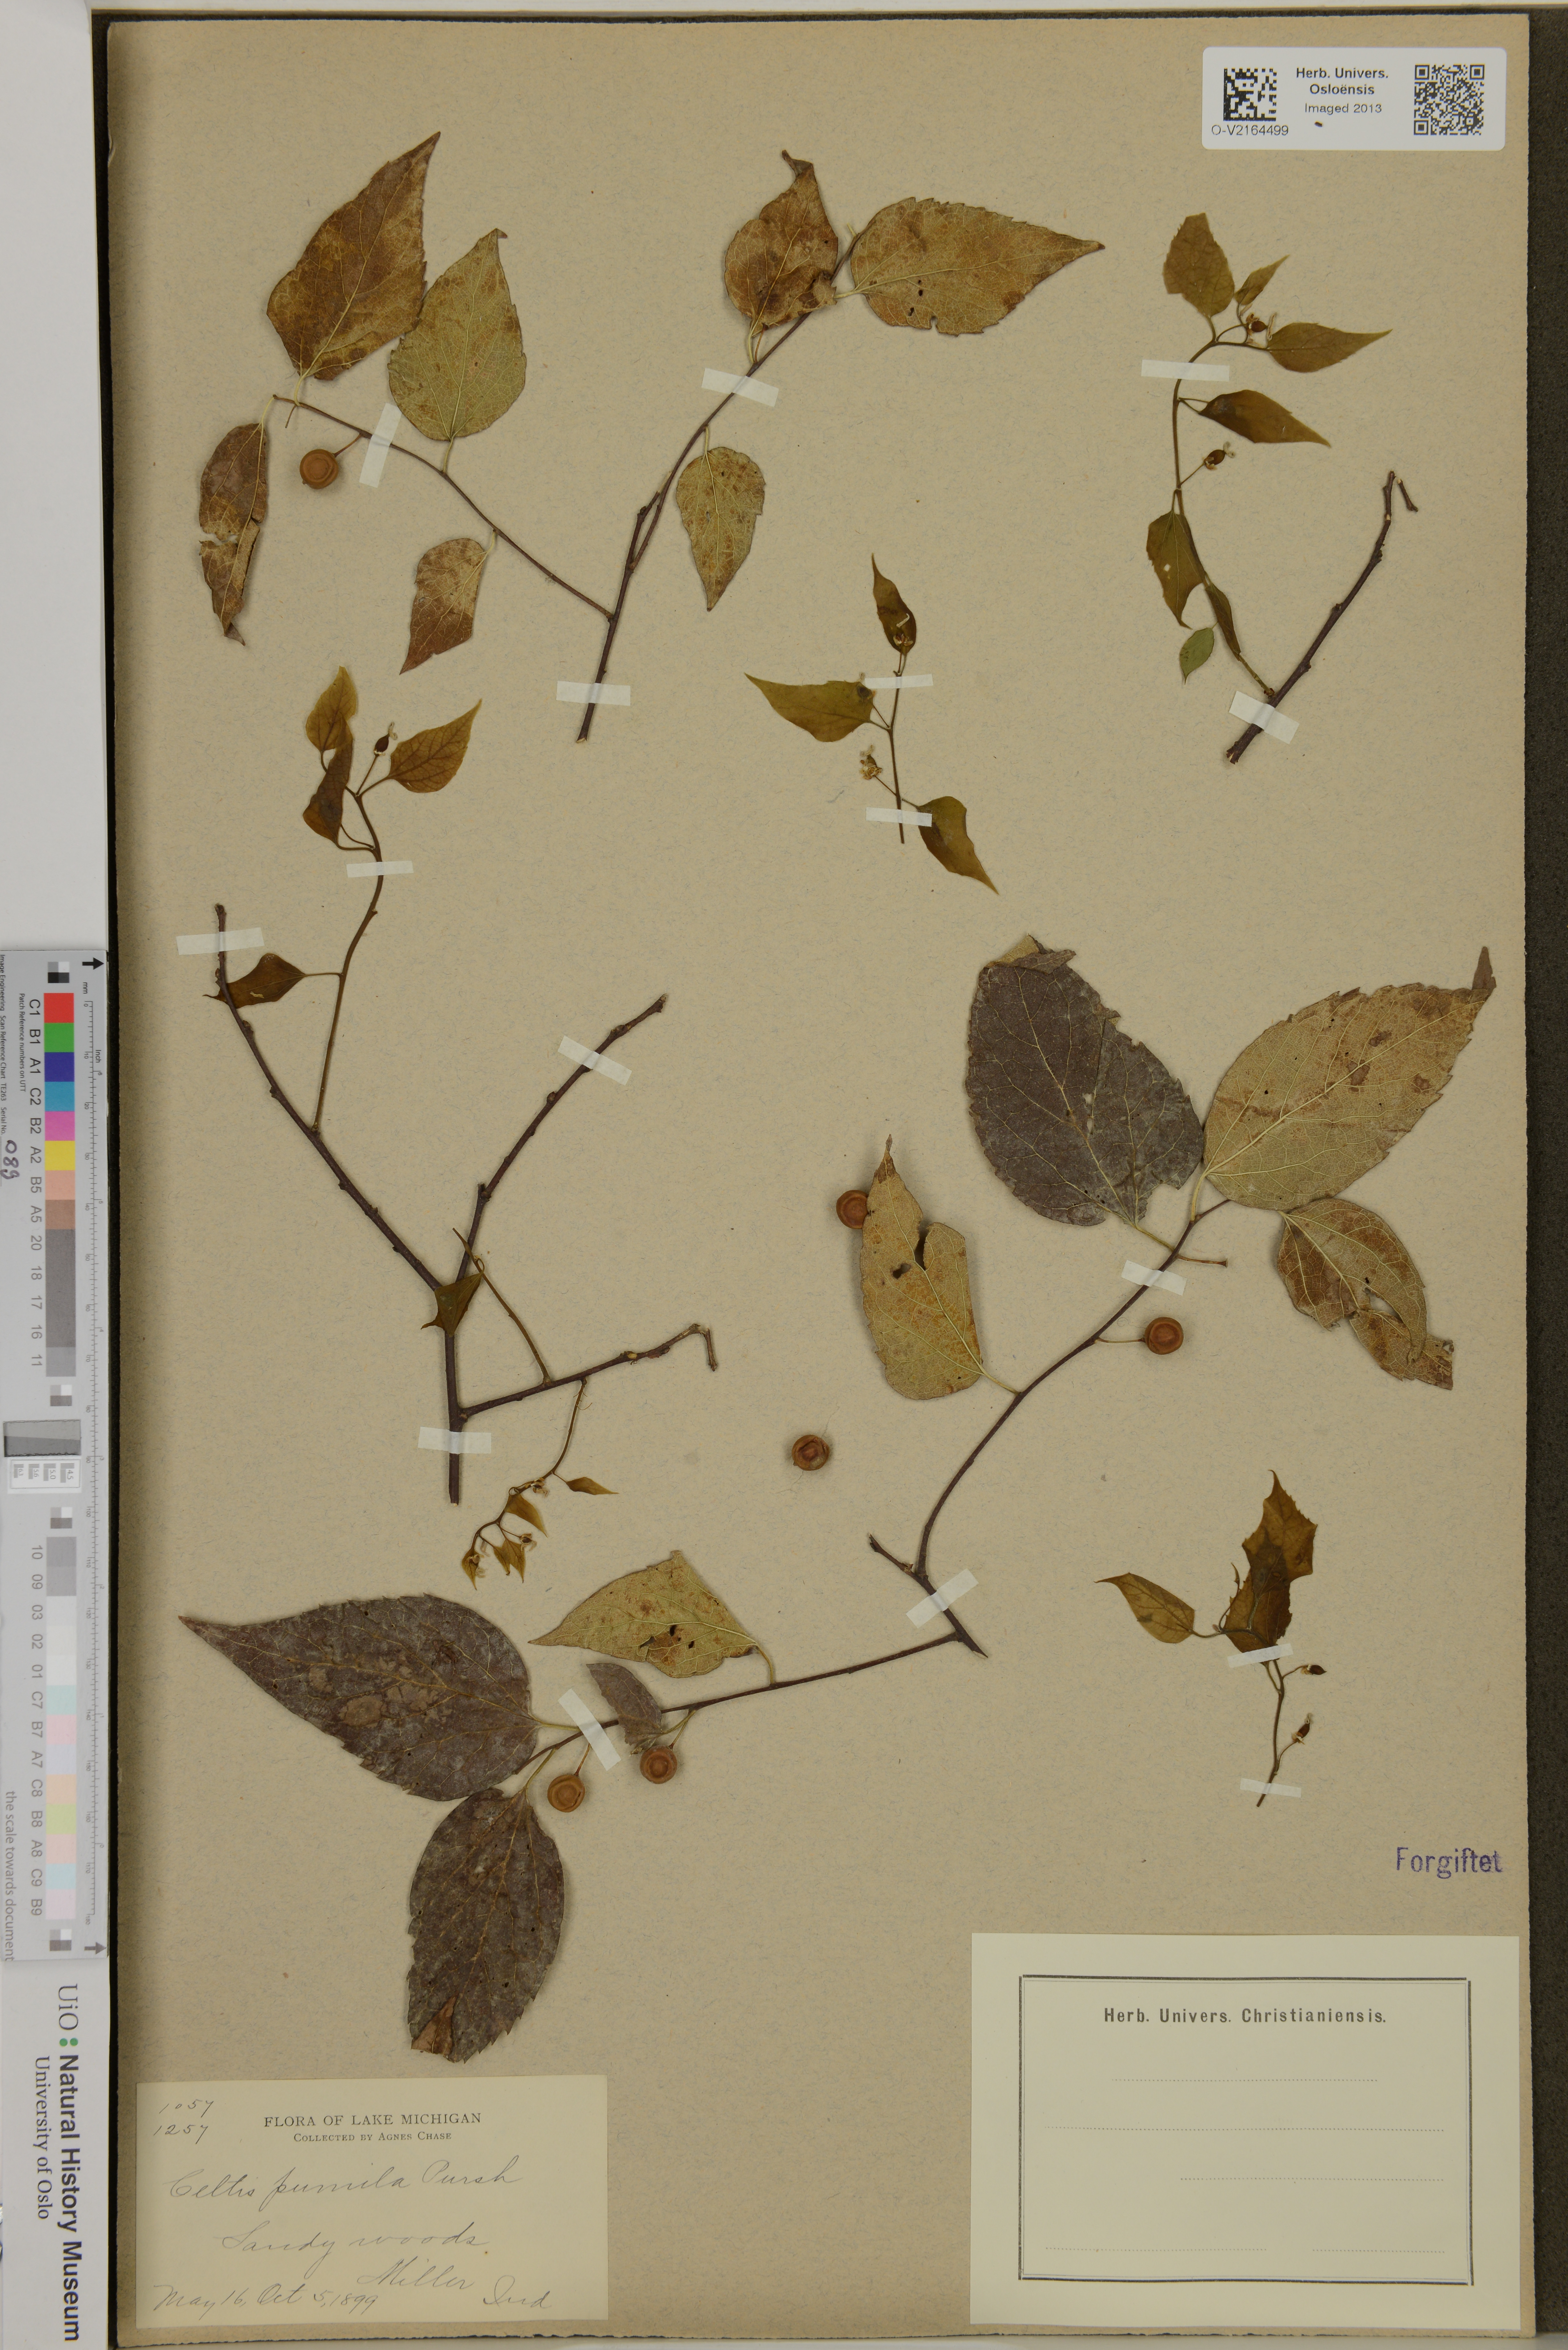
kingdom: Plantae
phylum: Tracheophyta
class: Magnoliopsida
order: Rosales
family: Cannabaceae
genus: Celtis
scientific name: Celtis occidentalis
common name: Common hackberry
